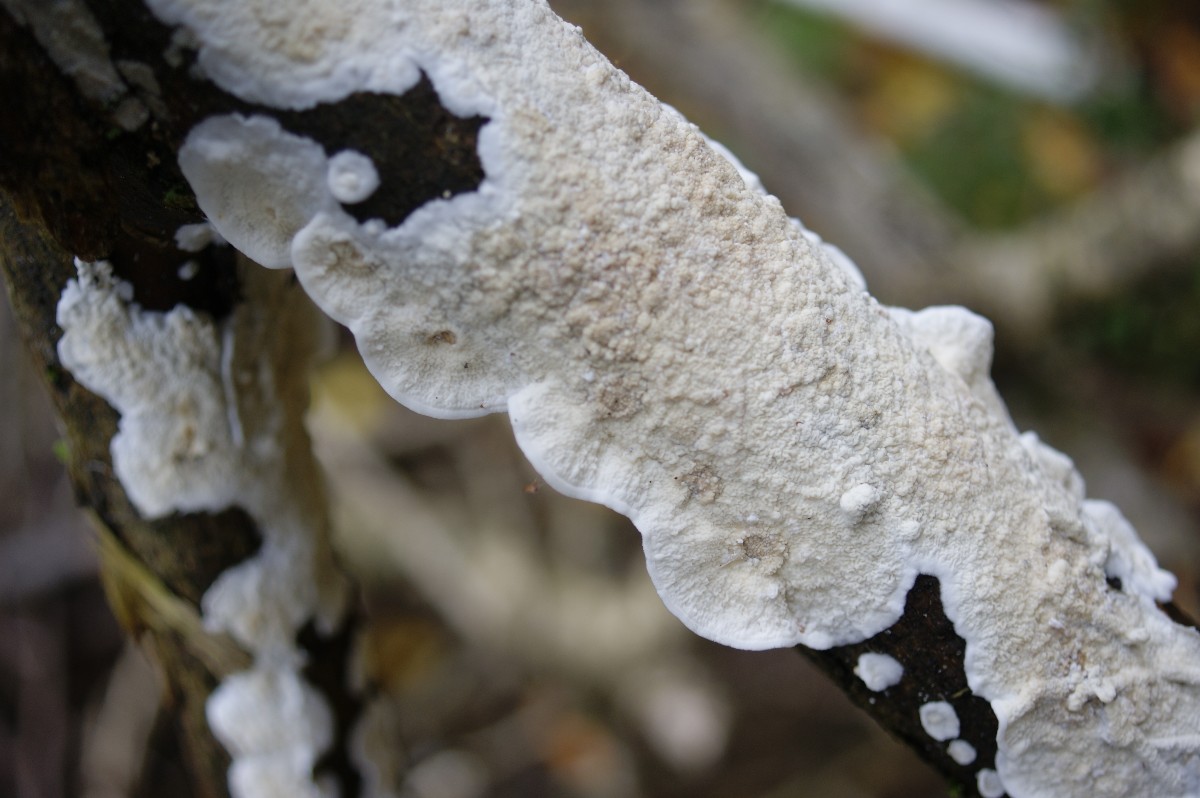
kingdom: Fungi
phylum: Basidiomycota
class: Agaricomycetes
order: Polyporales
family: Irpicaceae
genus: Byssomerulius
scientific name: Byssomerulius corium
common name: læder-åresvamp
